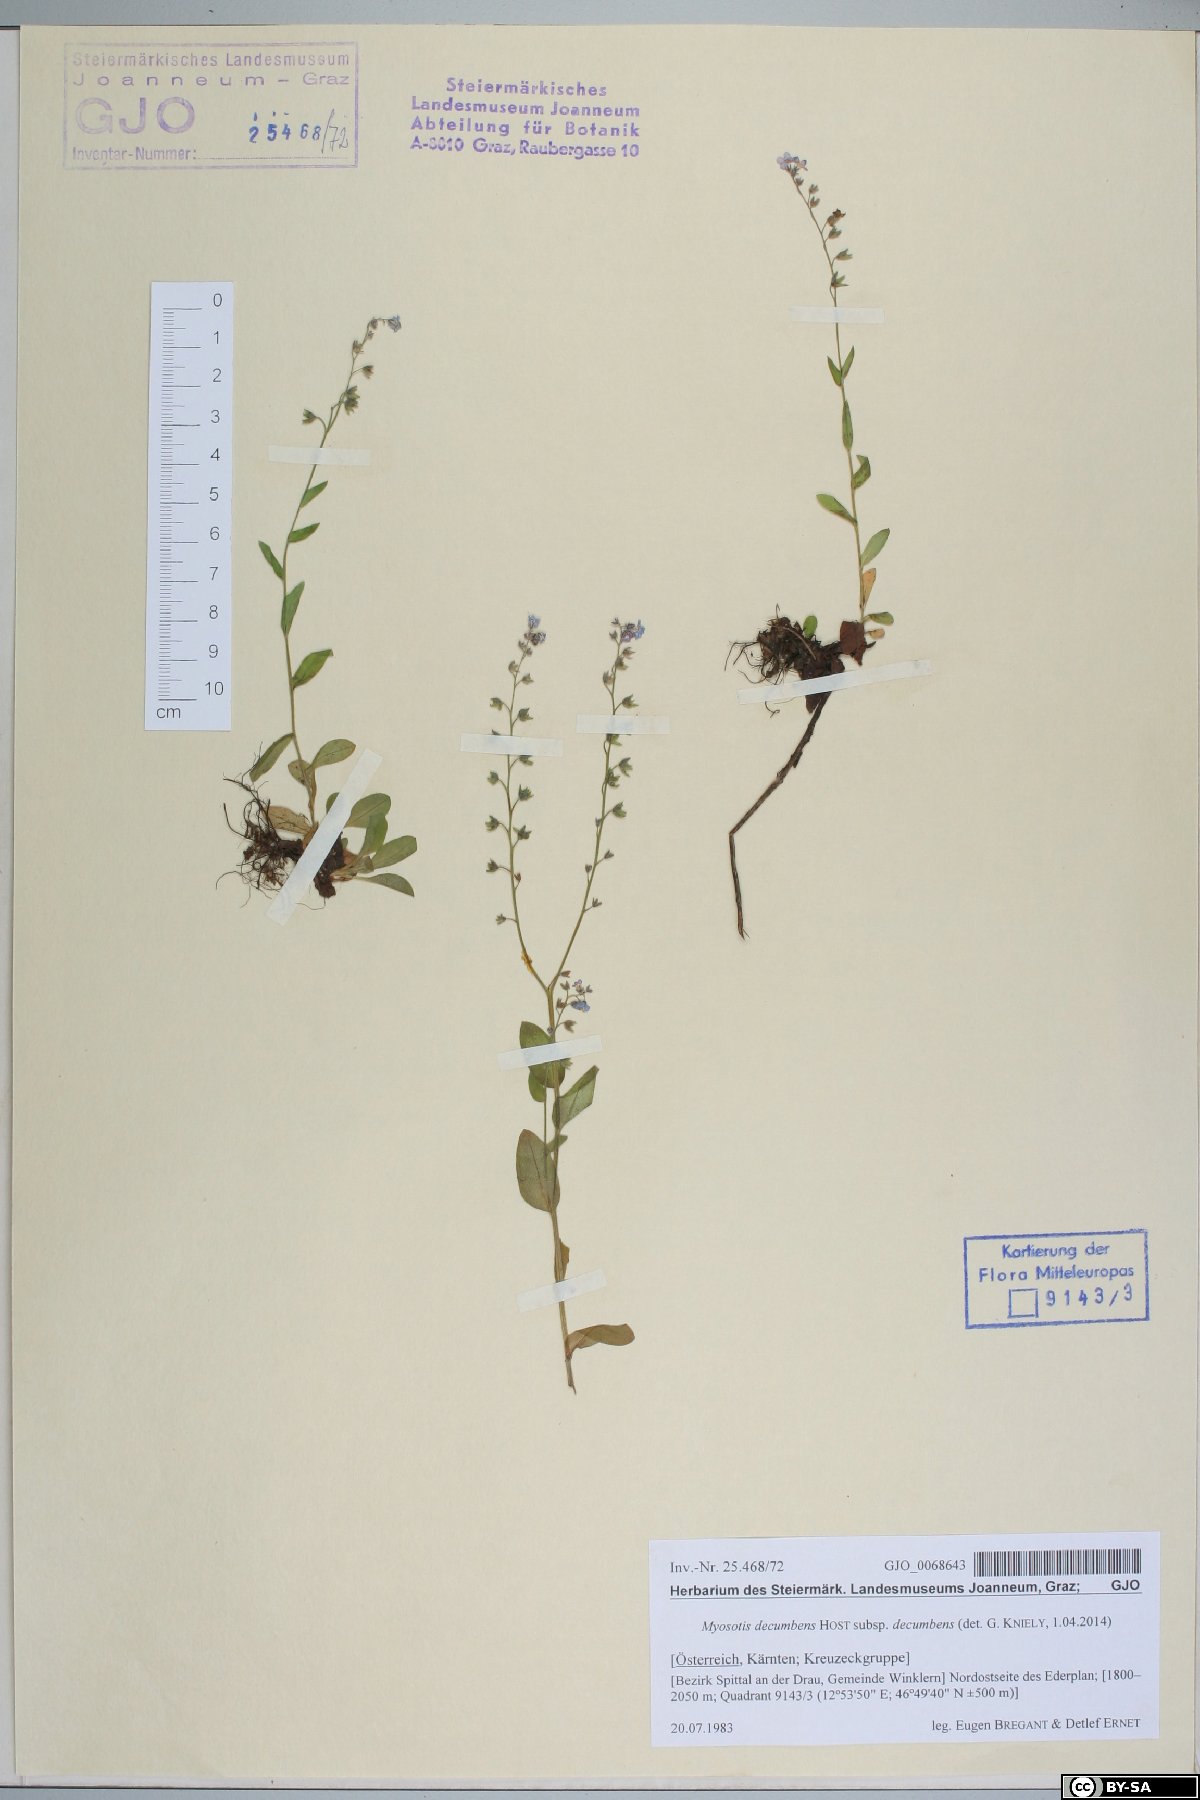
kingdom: Plantae
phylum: Tracheophyta
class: Magnoliopsida
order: Boraginales
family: Boraginaceae
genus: Myosotis
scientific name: Myosotis decumbens
